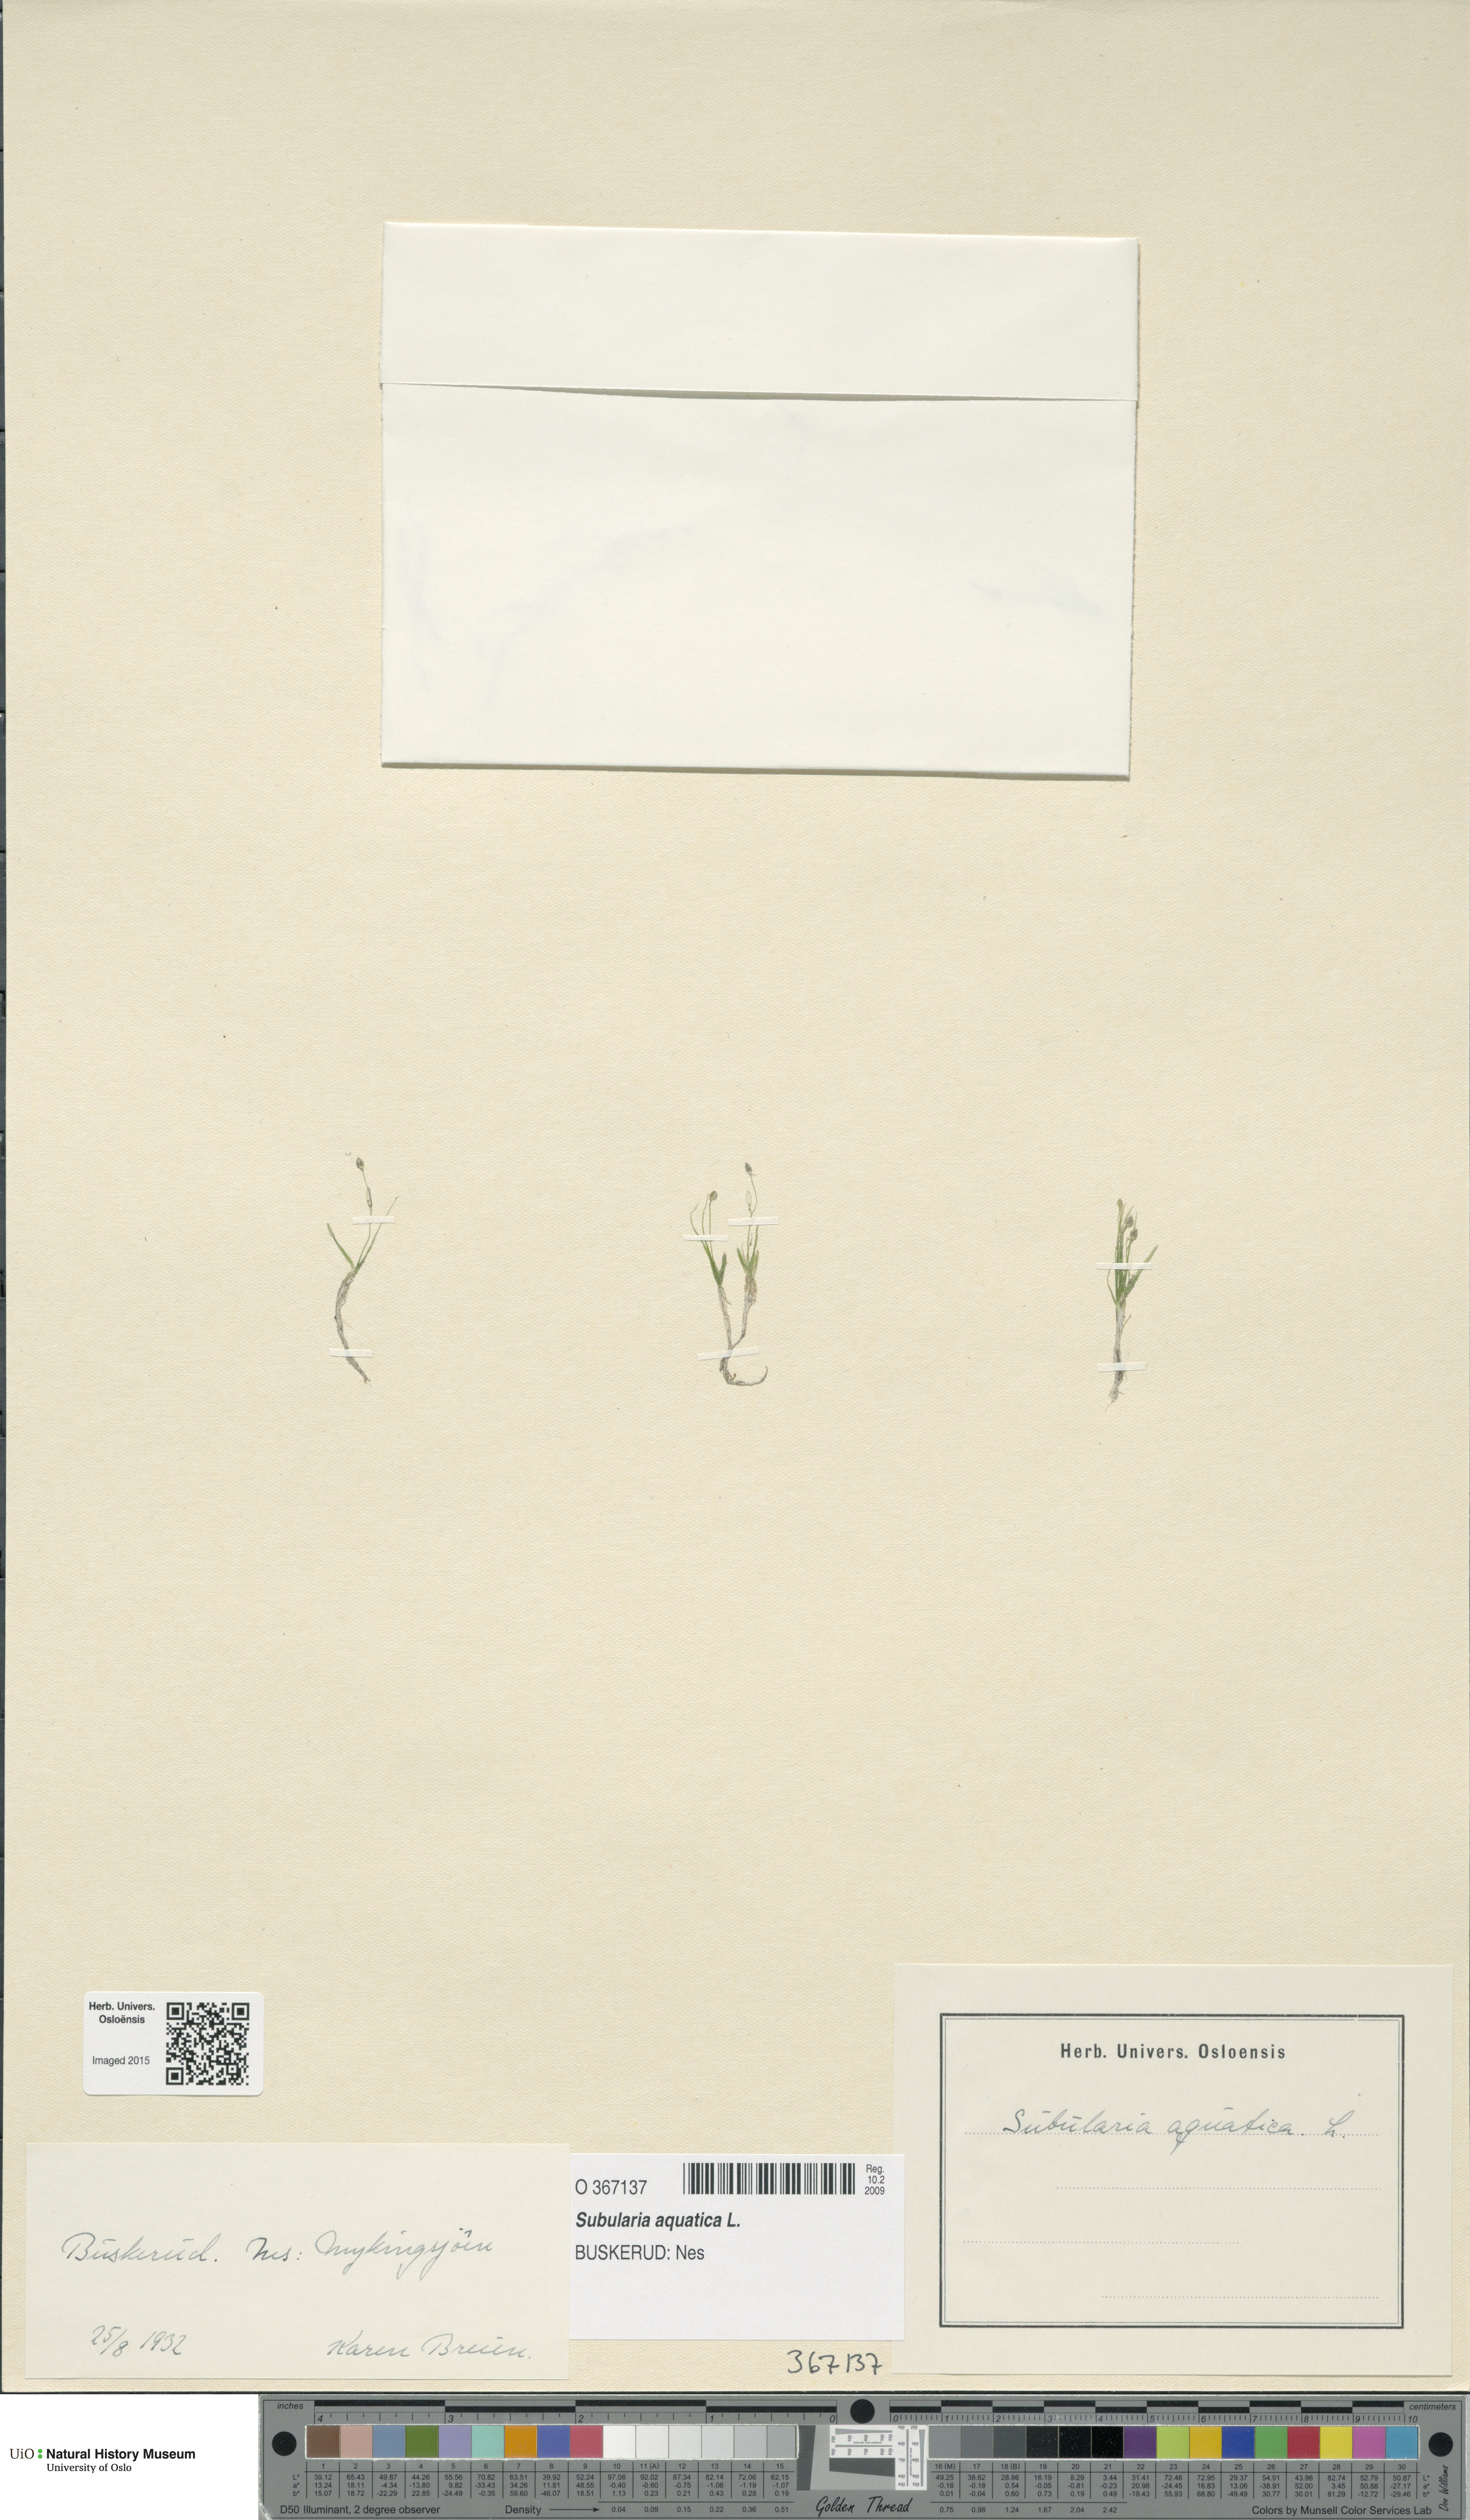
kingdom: Plantae
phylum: Tracheophyta
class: Magnoliopsida
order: Brassicales
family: Brassicaceae
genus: Subularia
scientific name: Subularia aquatica
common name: Awlwort
